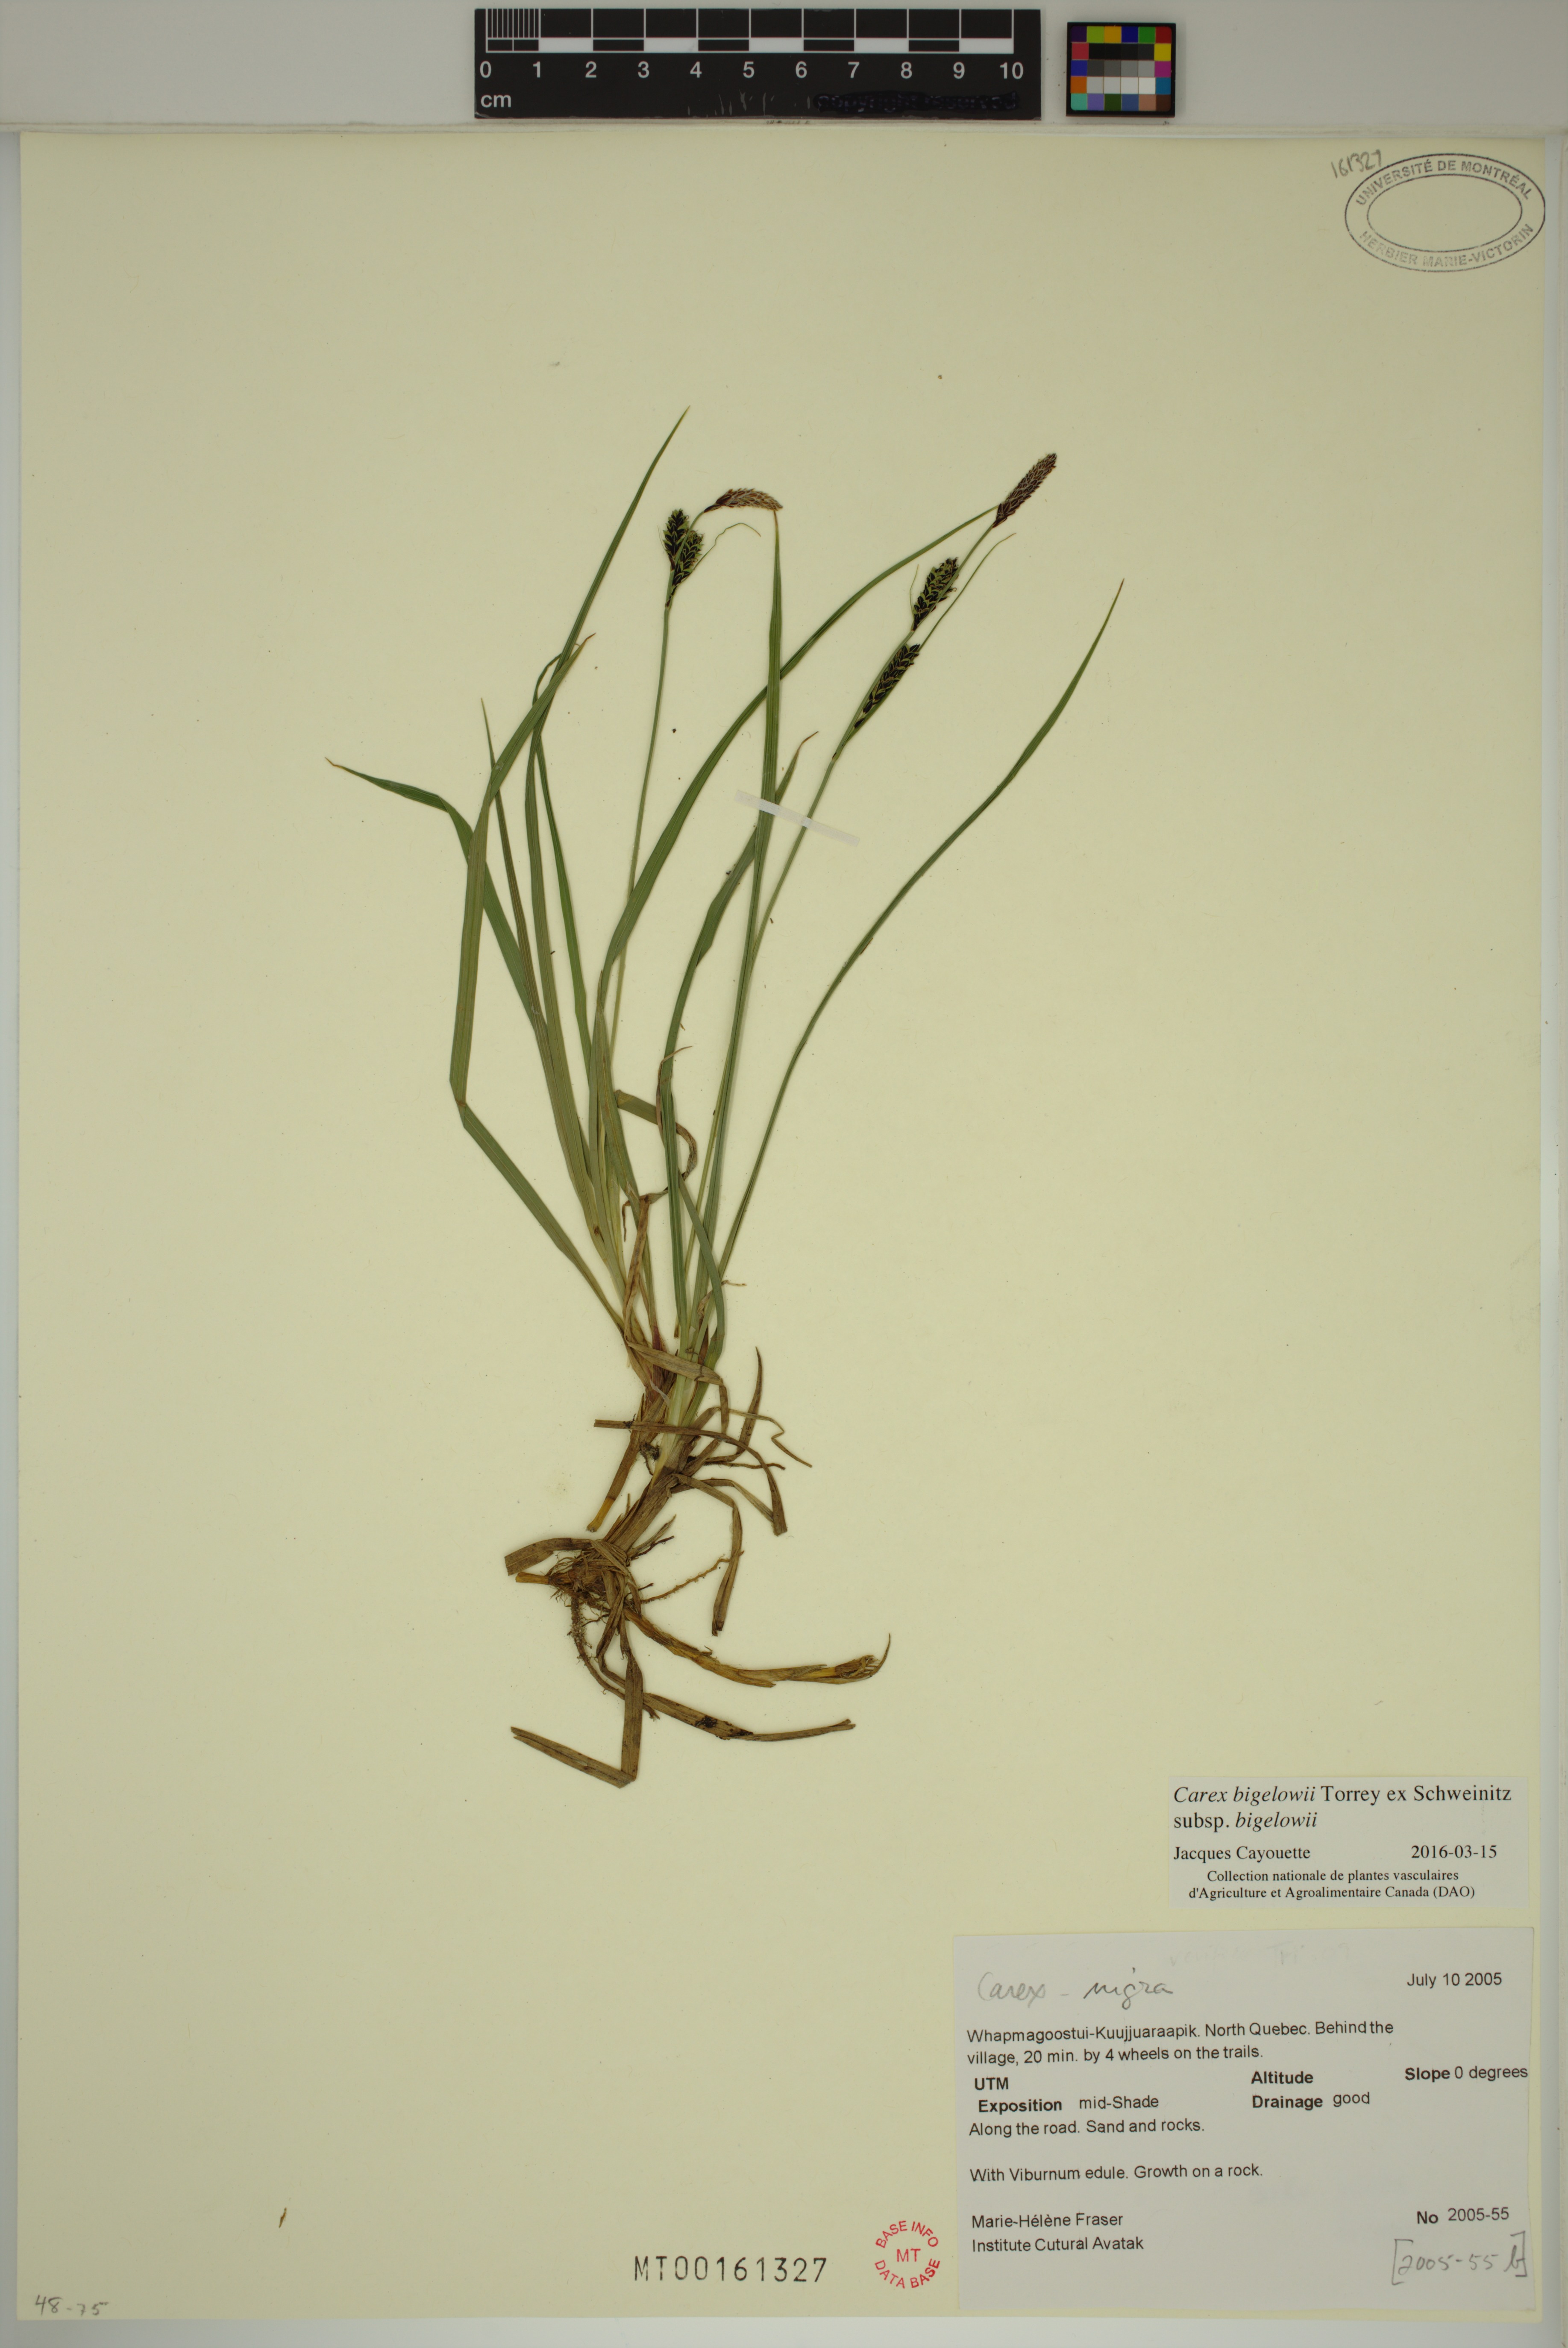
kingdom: Plantae
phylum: Tracheophyta
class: Liliopsida
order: Poales
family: Cyperaceae
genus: Carex
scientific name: Carex bigelowii
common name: Stiff sedge
